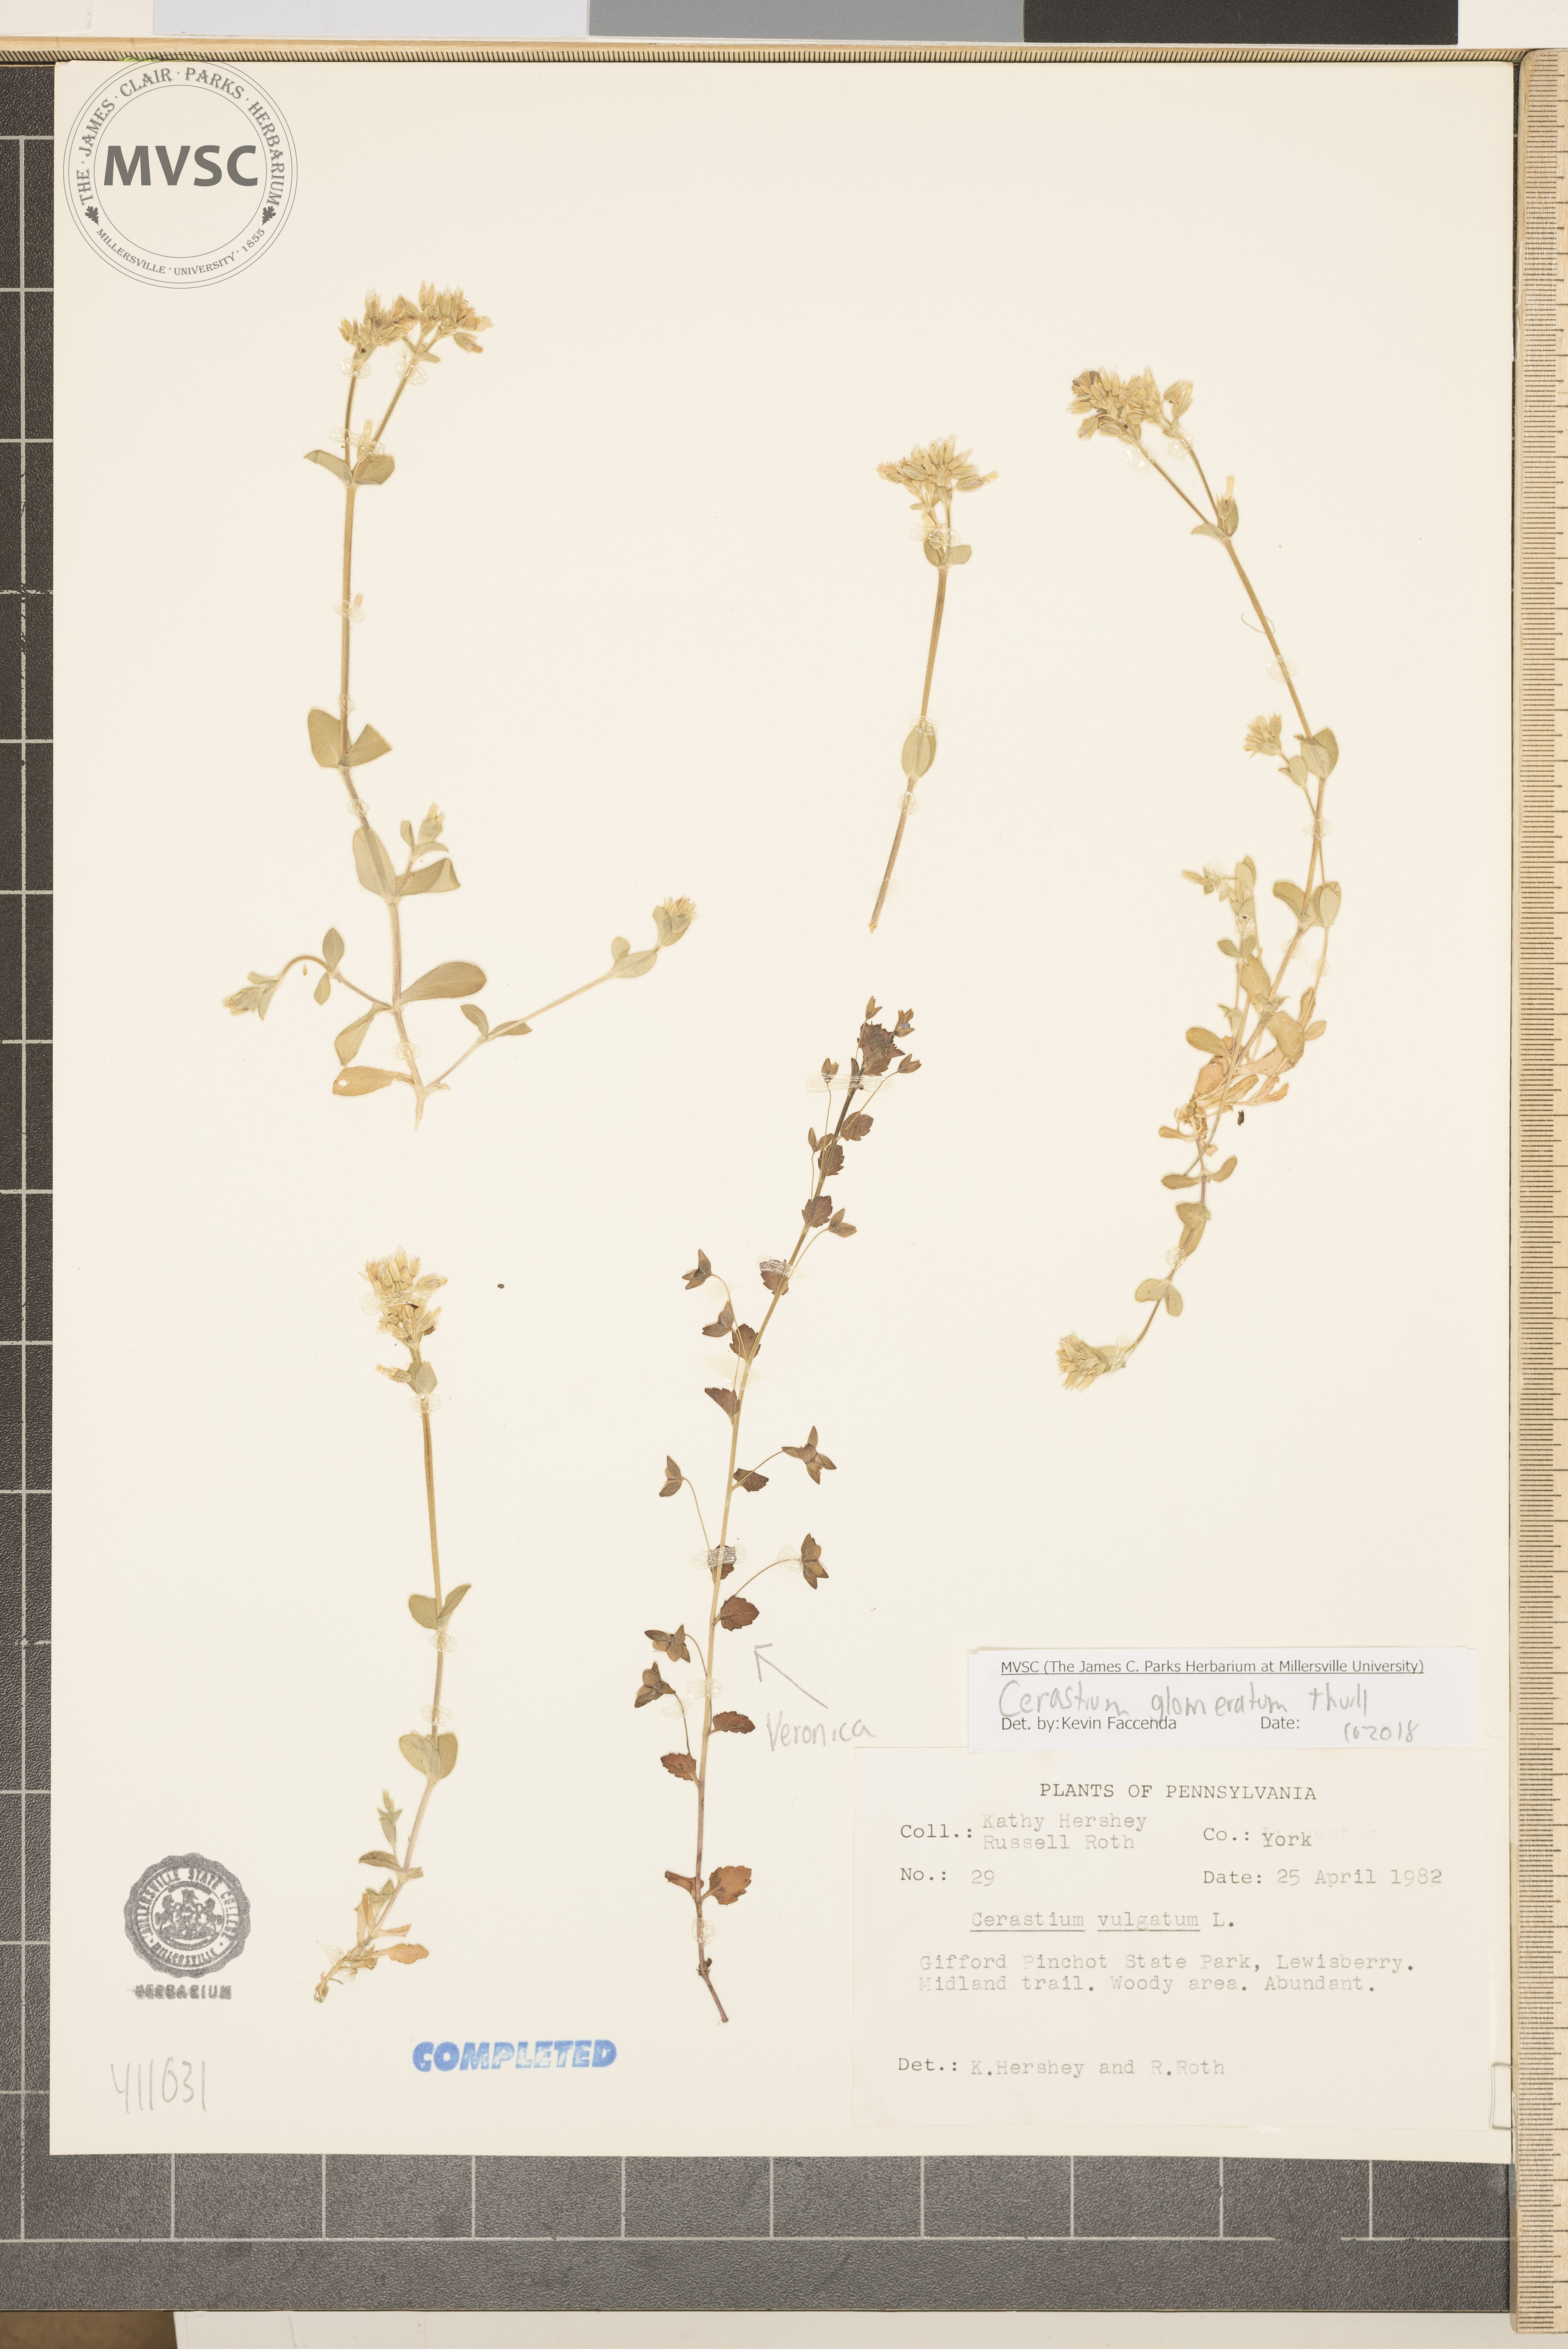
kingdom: Plantae
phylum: Tracheophyta
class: Magnoliopsida
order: Caryophyllales
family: Caryophyllaceae
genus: Cerastium
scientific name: Cerastium glomeratum
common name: Sticky chickweed
